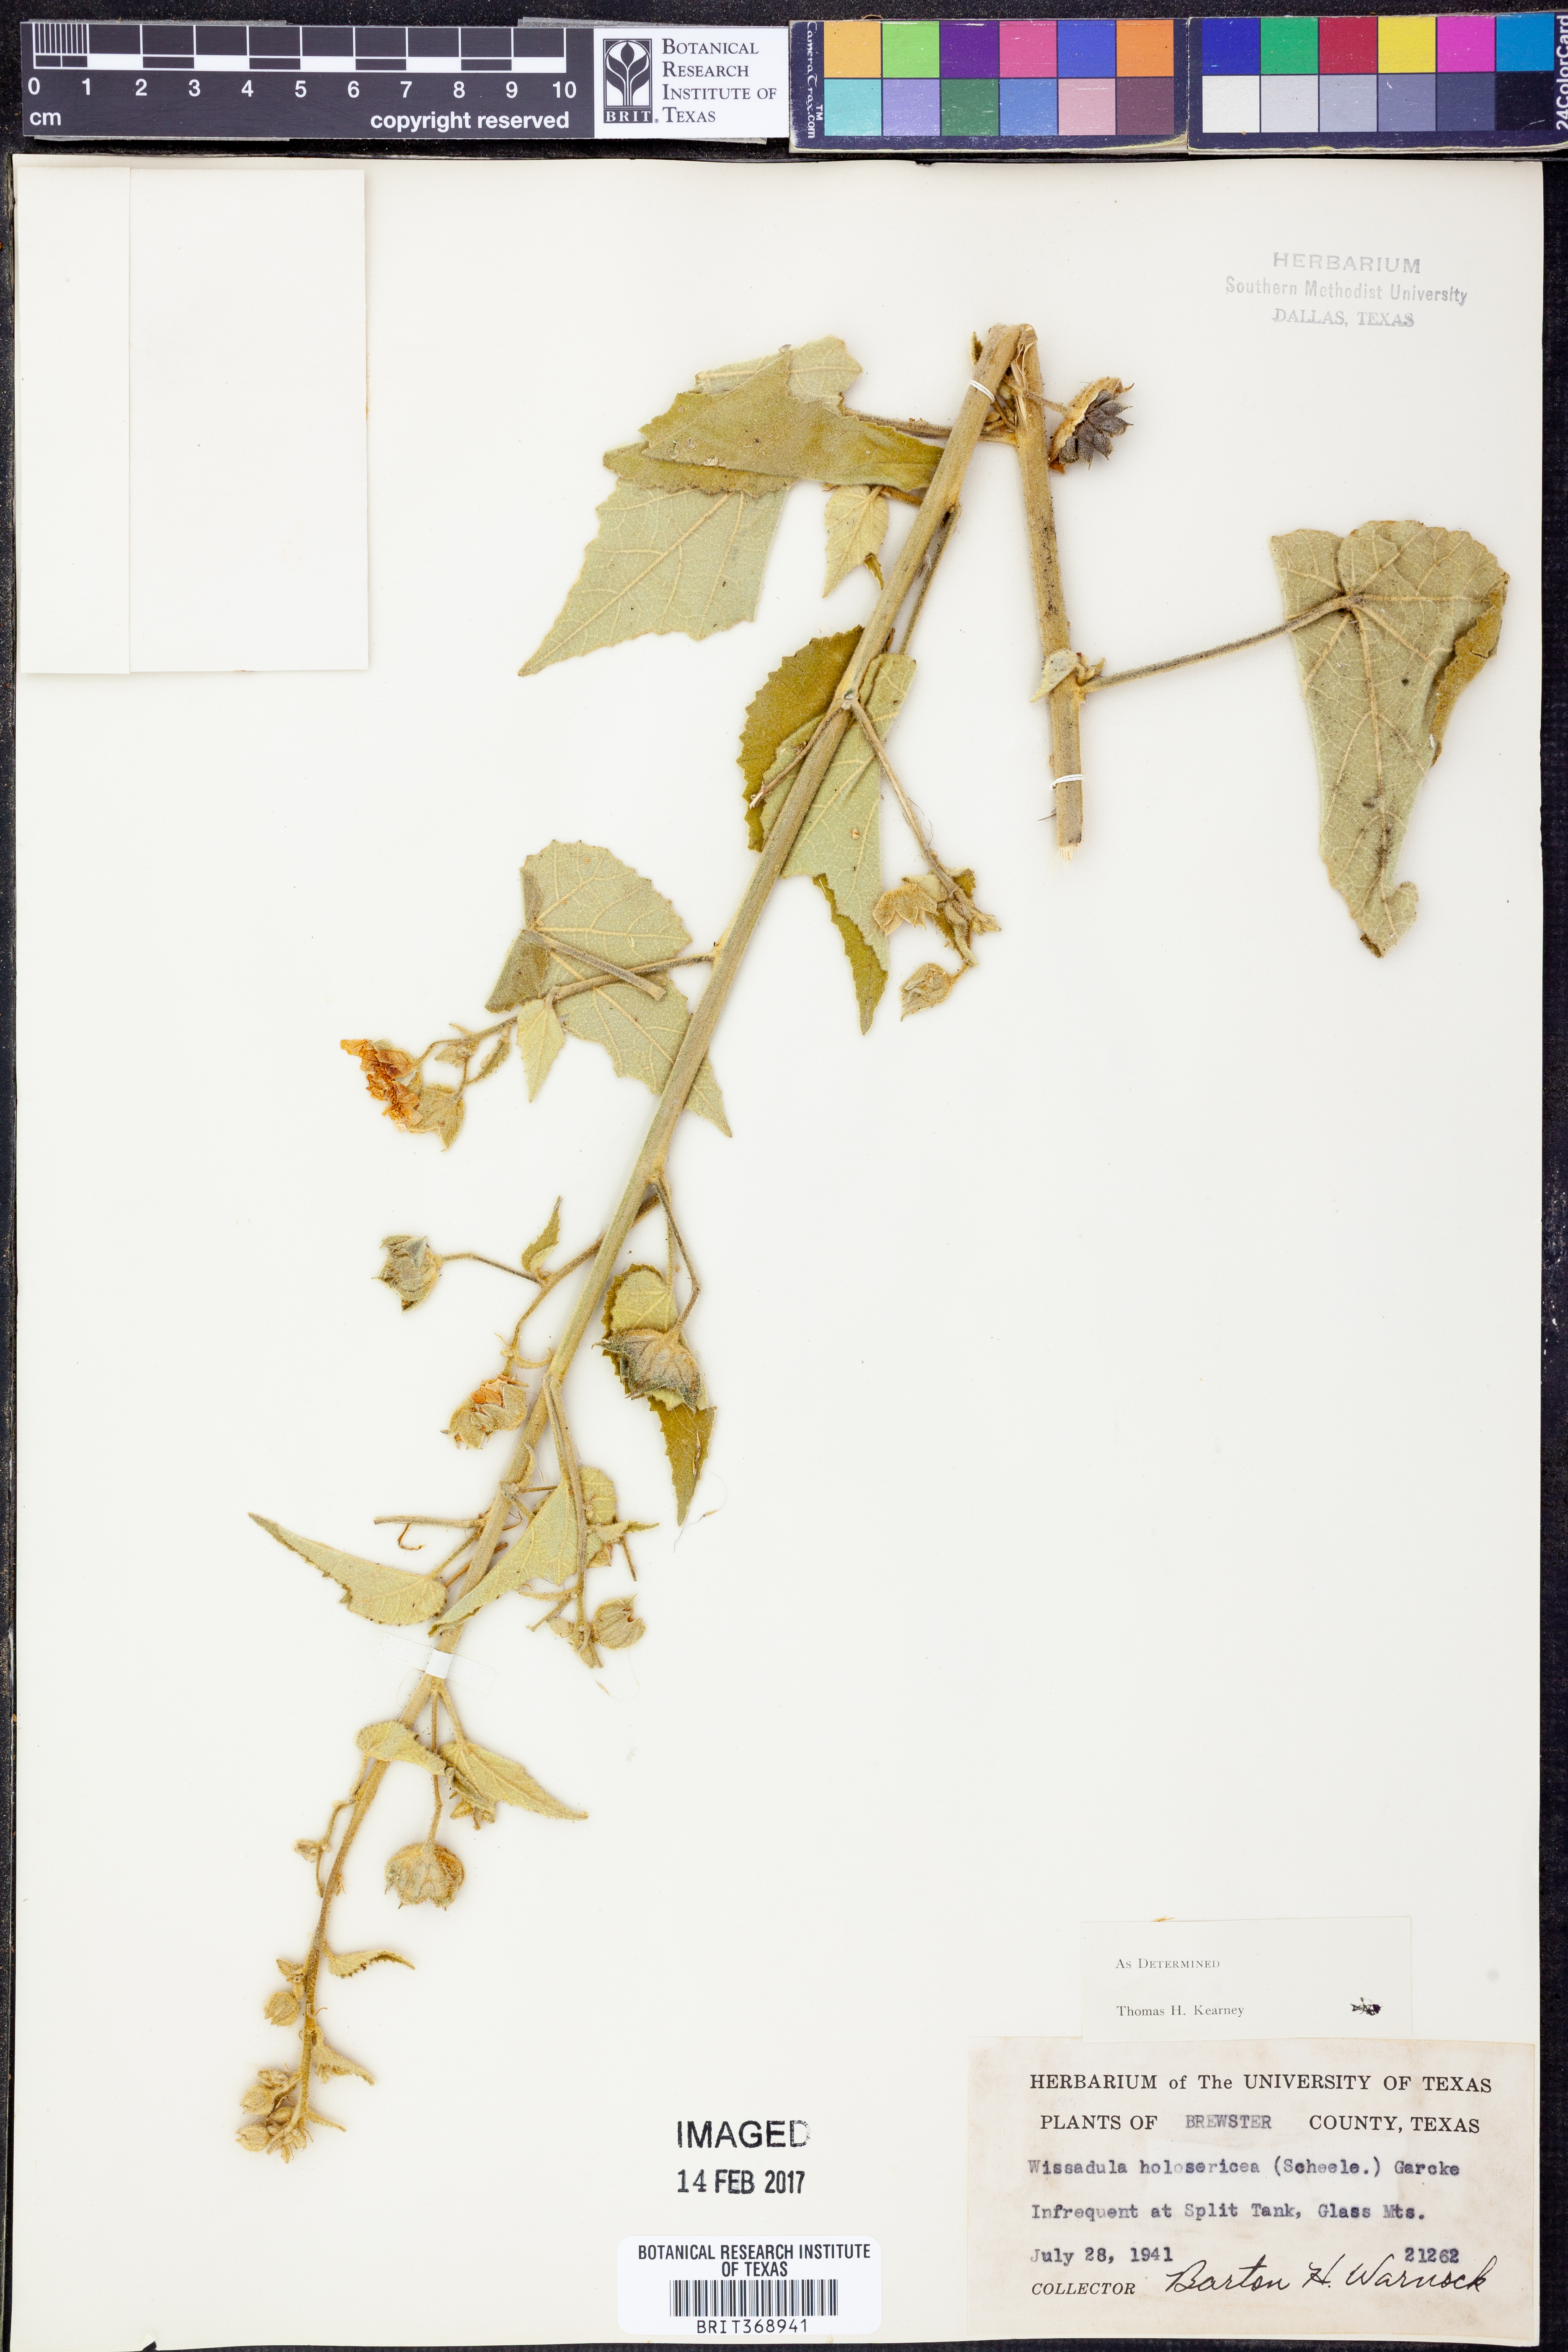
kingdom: Plantae
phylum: Tracheophyta
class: Magnoliopsida
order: Malvales
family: Malvaceae
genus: Allowissadula
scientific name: Allowissadula holosericea
